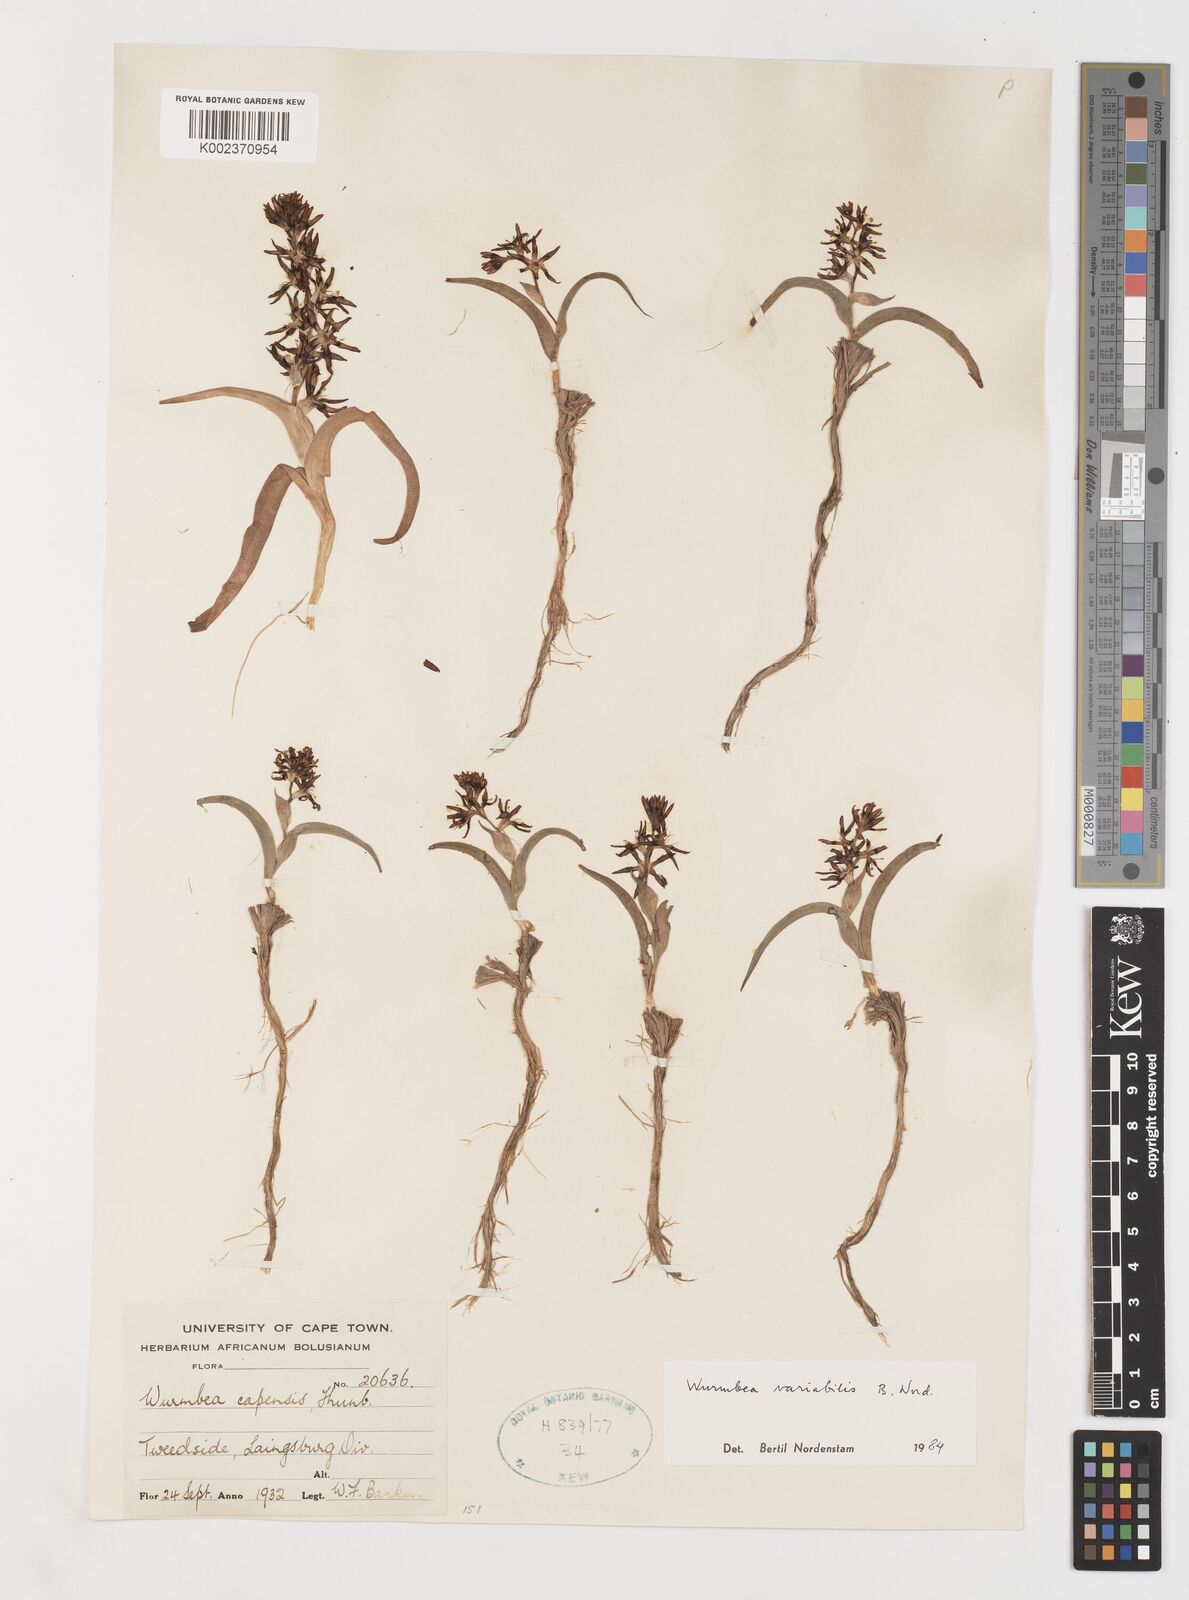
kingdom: Plantae
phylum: Tracheophyta
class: Liliopsida
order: Liliales
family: Colchicaceae
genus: Wurmbea
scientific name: Wurmbea variabilis
